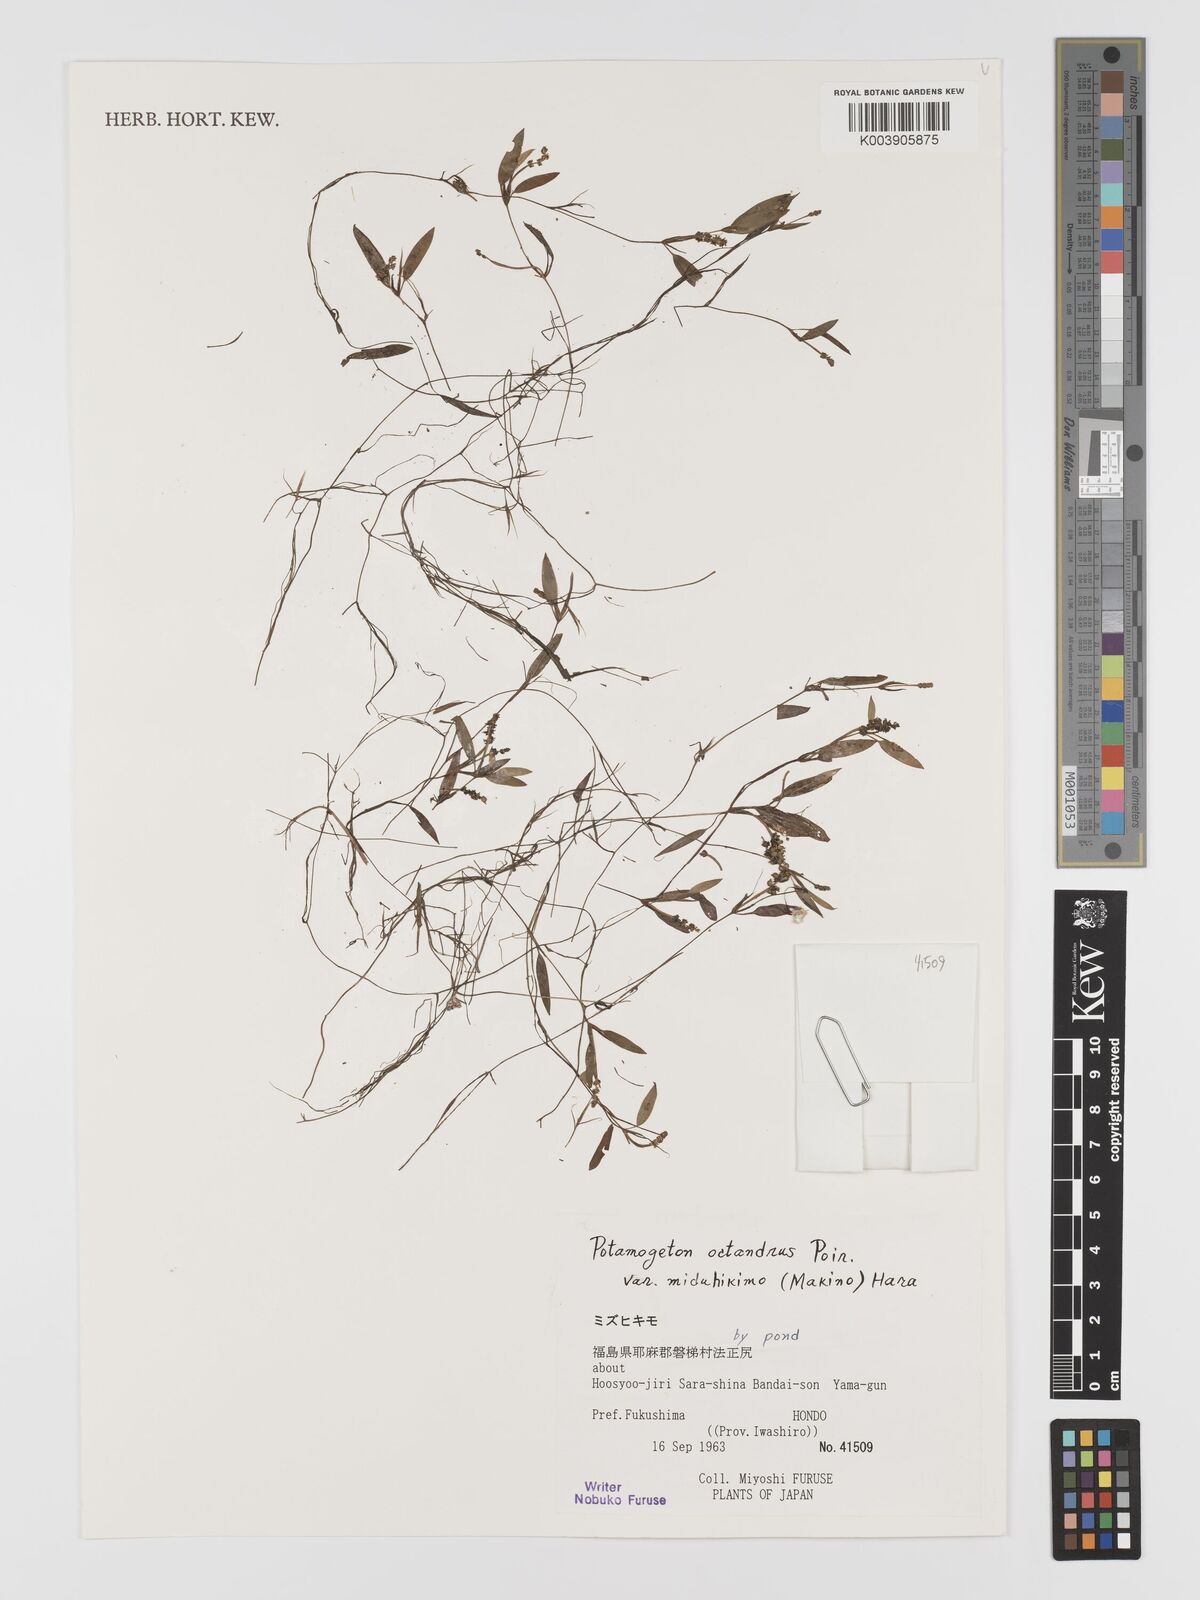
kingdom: Plantae
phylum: Tracheophyta
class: Liliopsida
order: Alismatales
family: Potamogetonaceae
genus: Potamogeton
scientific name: Potamogeton octandrus
